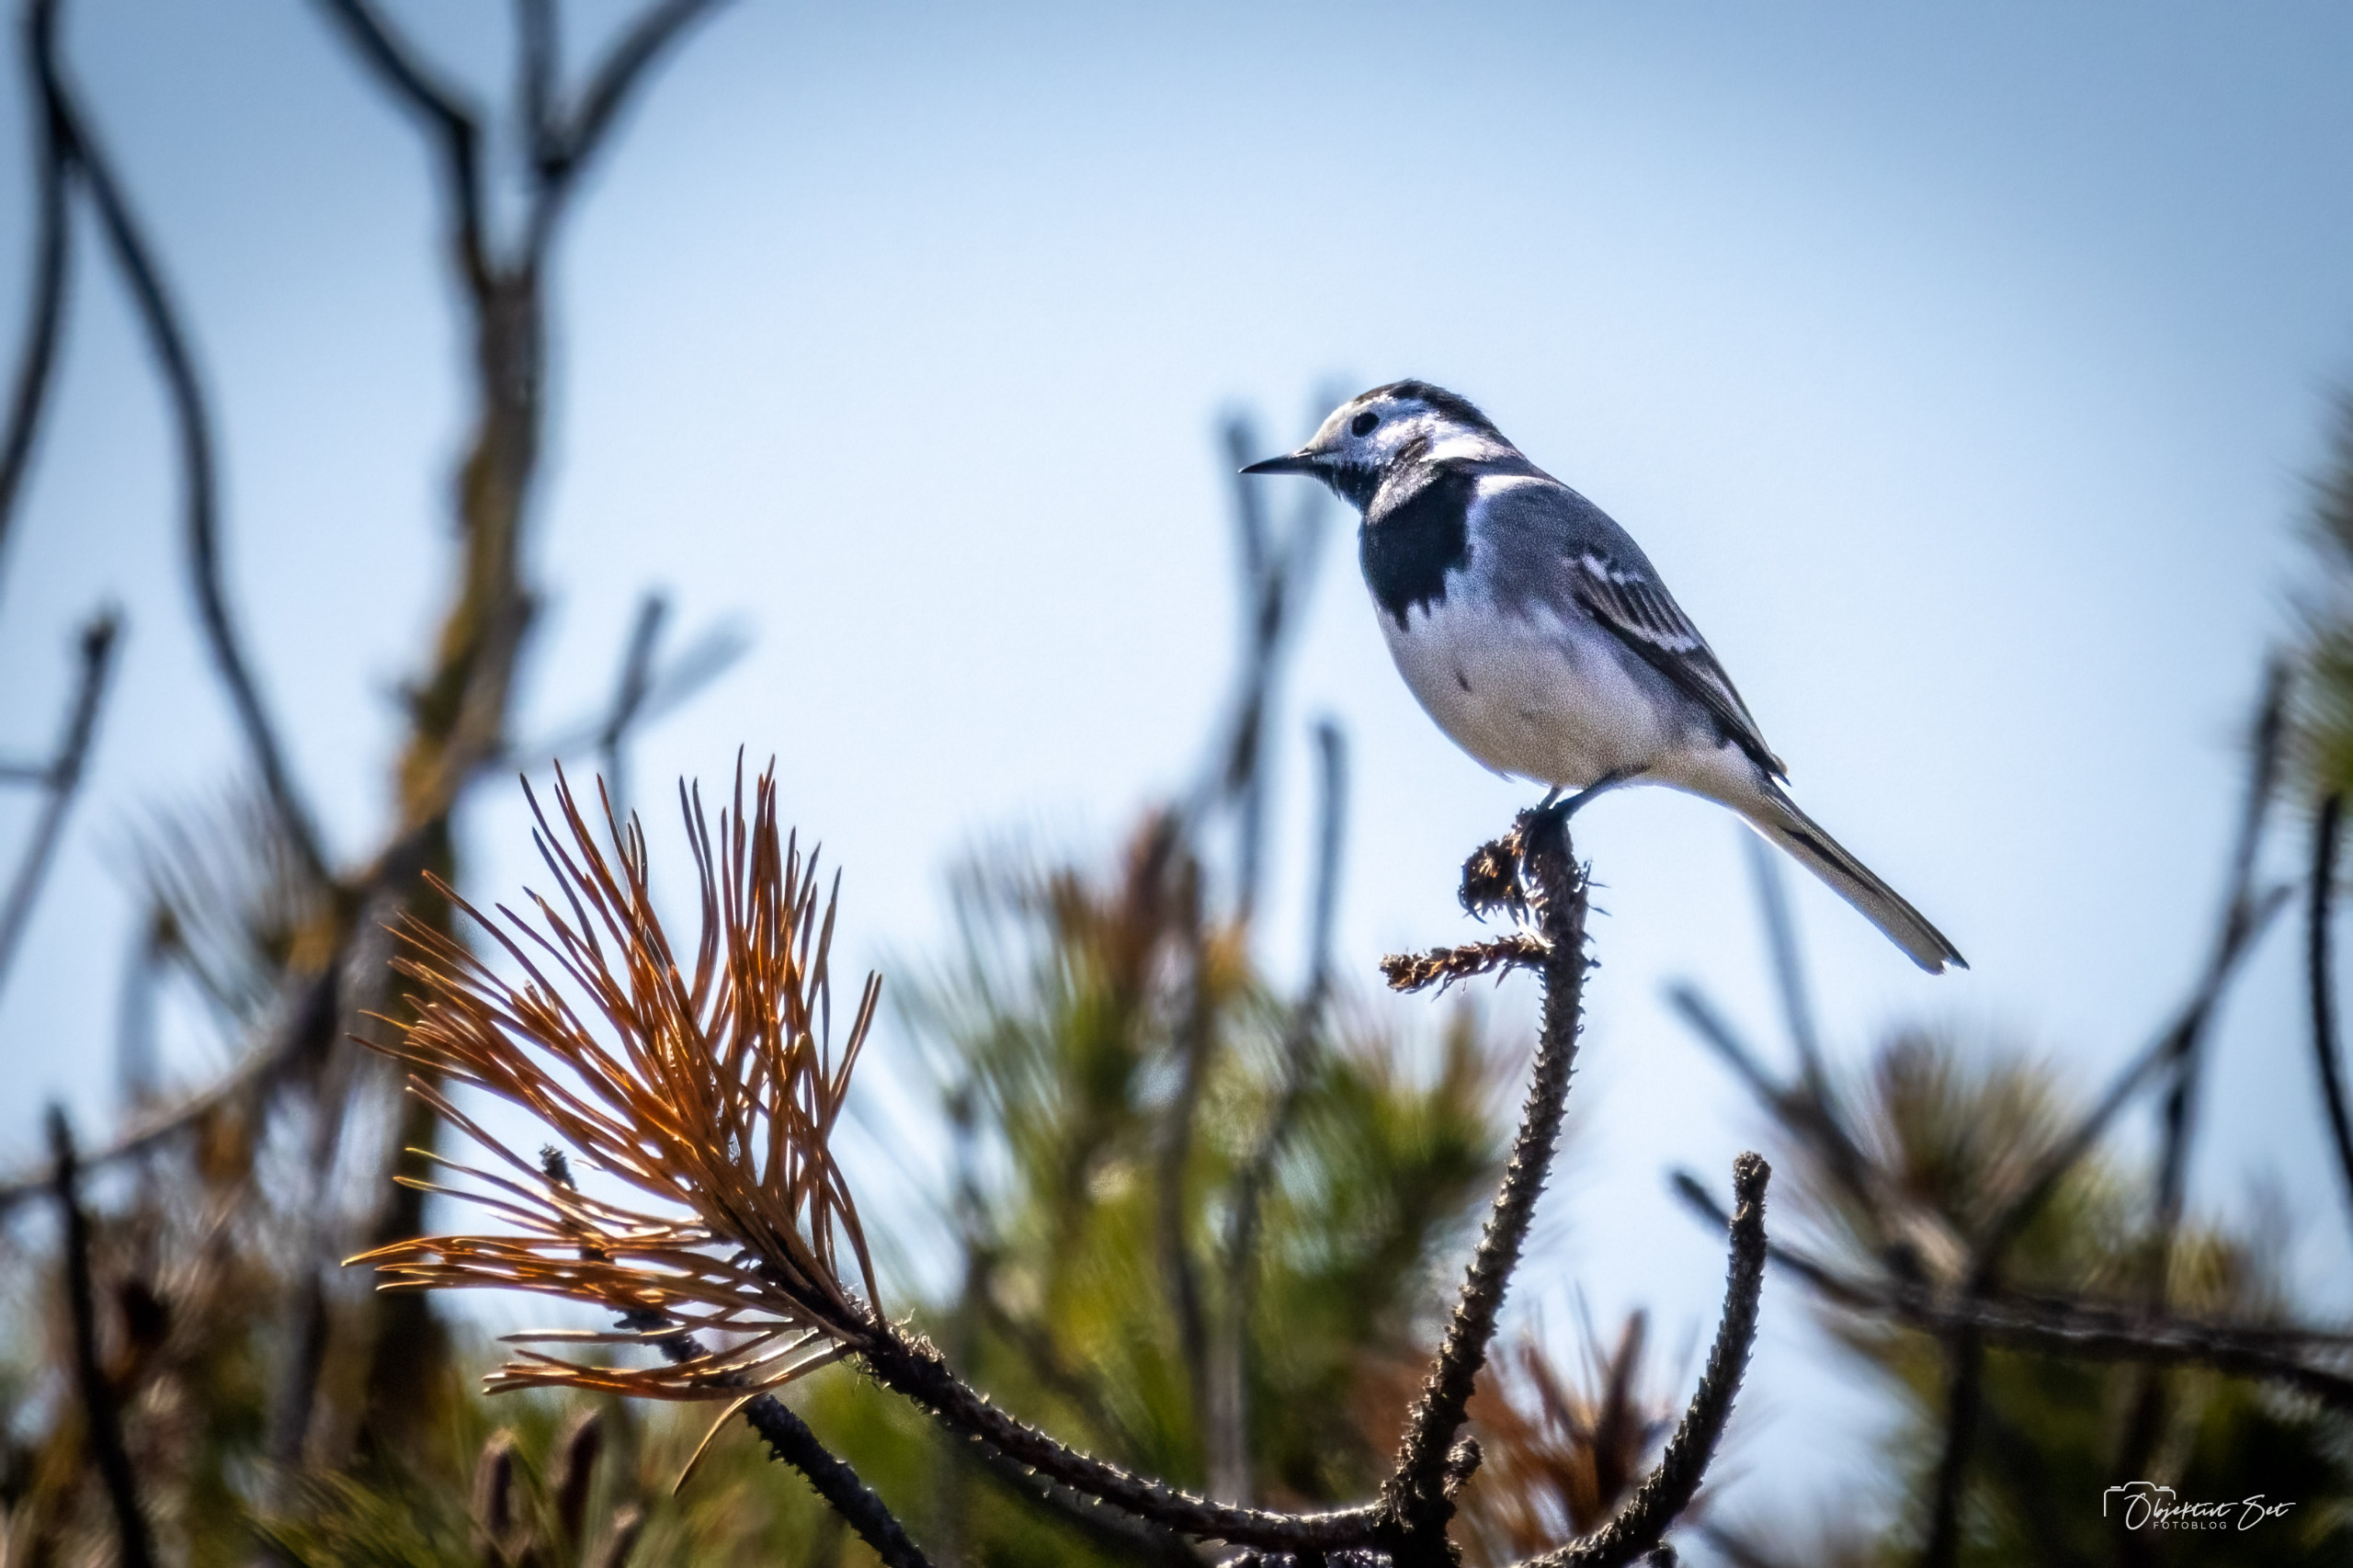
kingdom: Animalia
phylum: Chordata
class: Aves
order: Passeriformes
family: Motacillidae
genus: Motacilla
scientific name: Motacilla alba
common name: Hvid vipstjert
